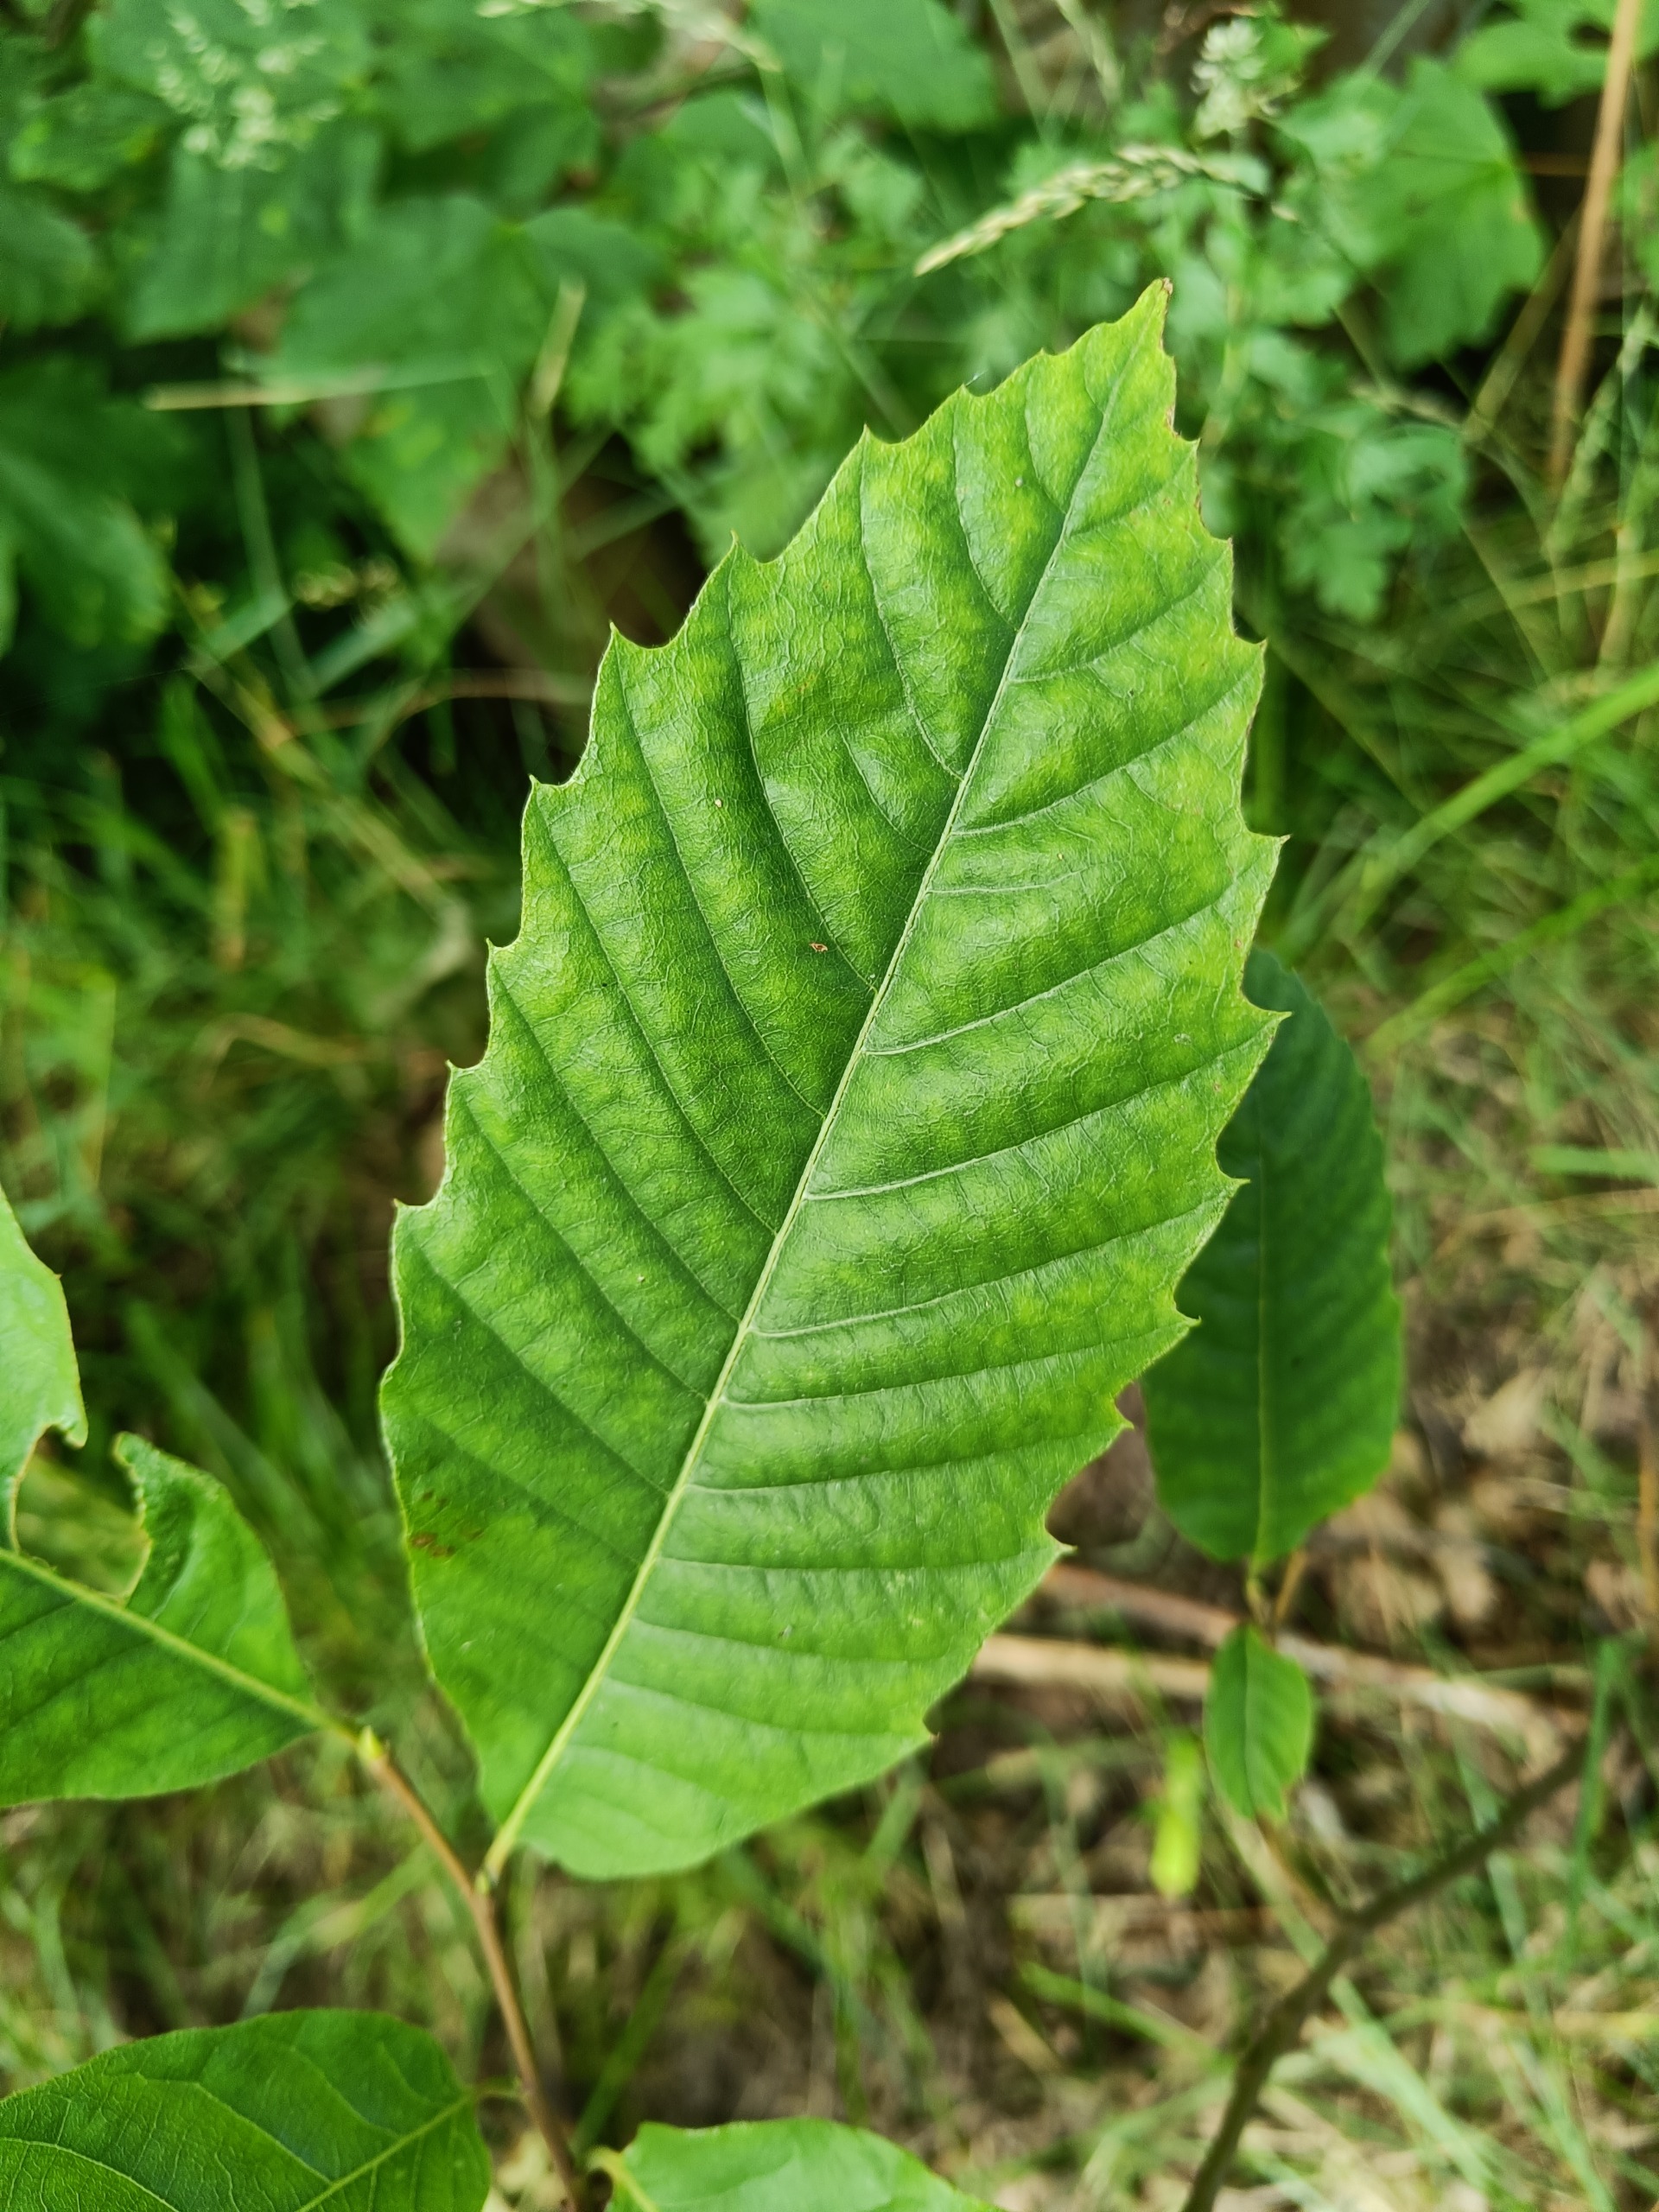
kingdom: Plantae
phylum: Tracheophyta
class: Magnoliopsida
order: Fagales
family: Fagaceae
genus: Castanea
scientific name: Castanea sativa
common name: Ægte kastanie
